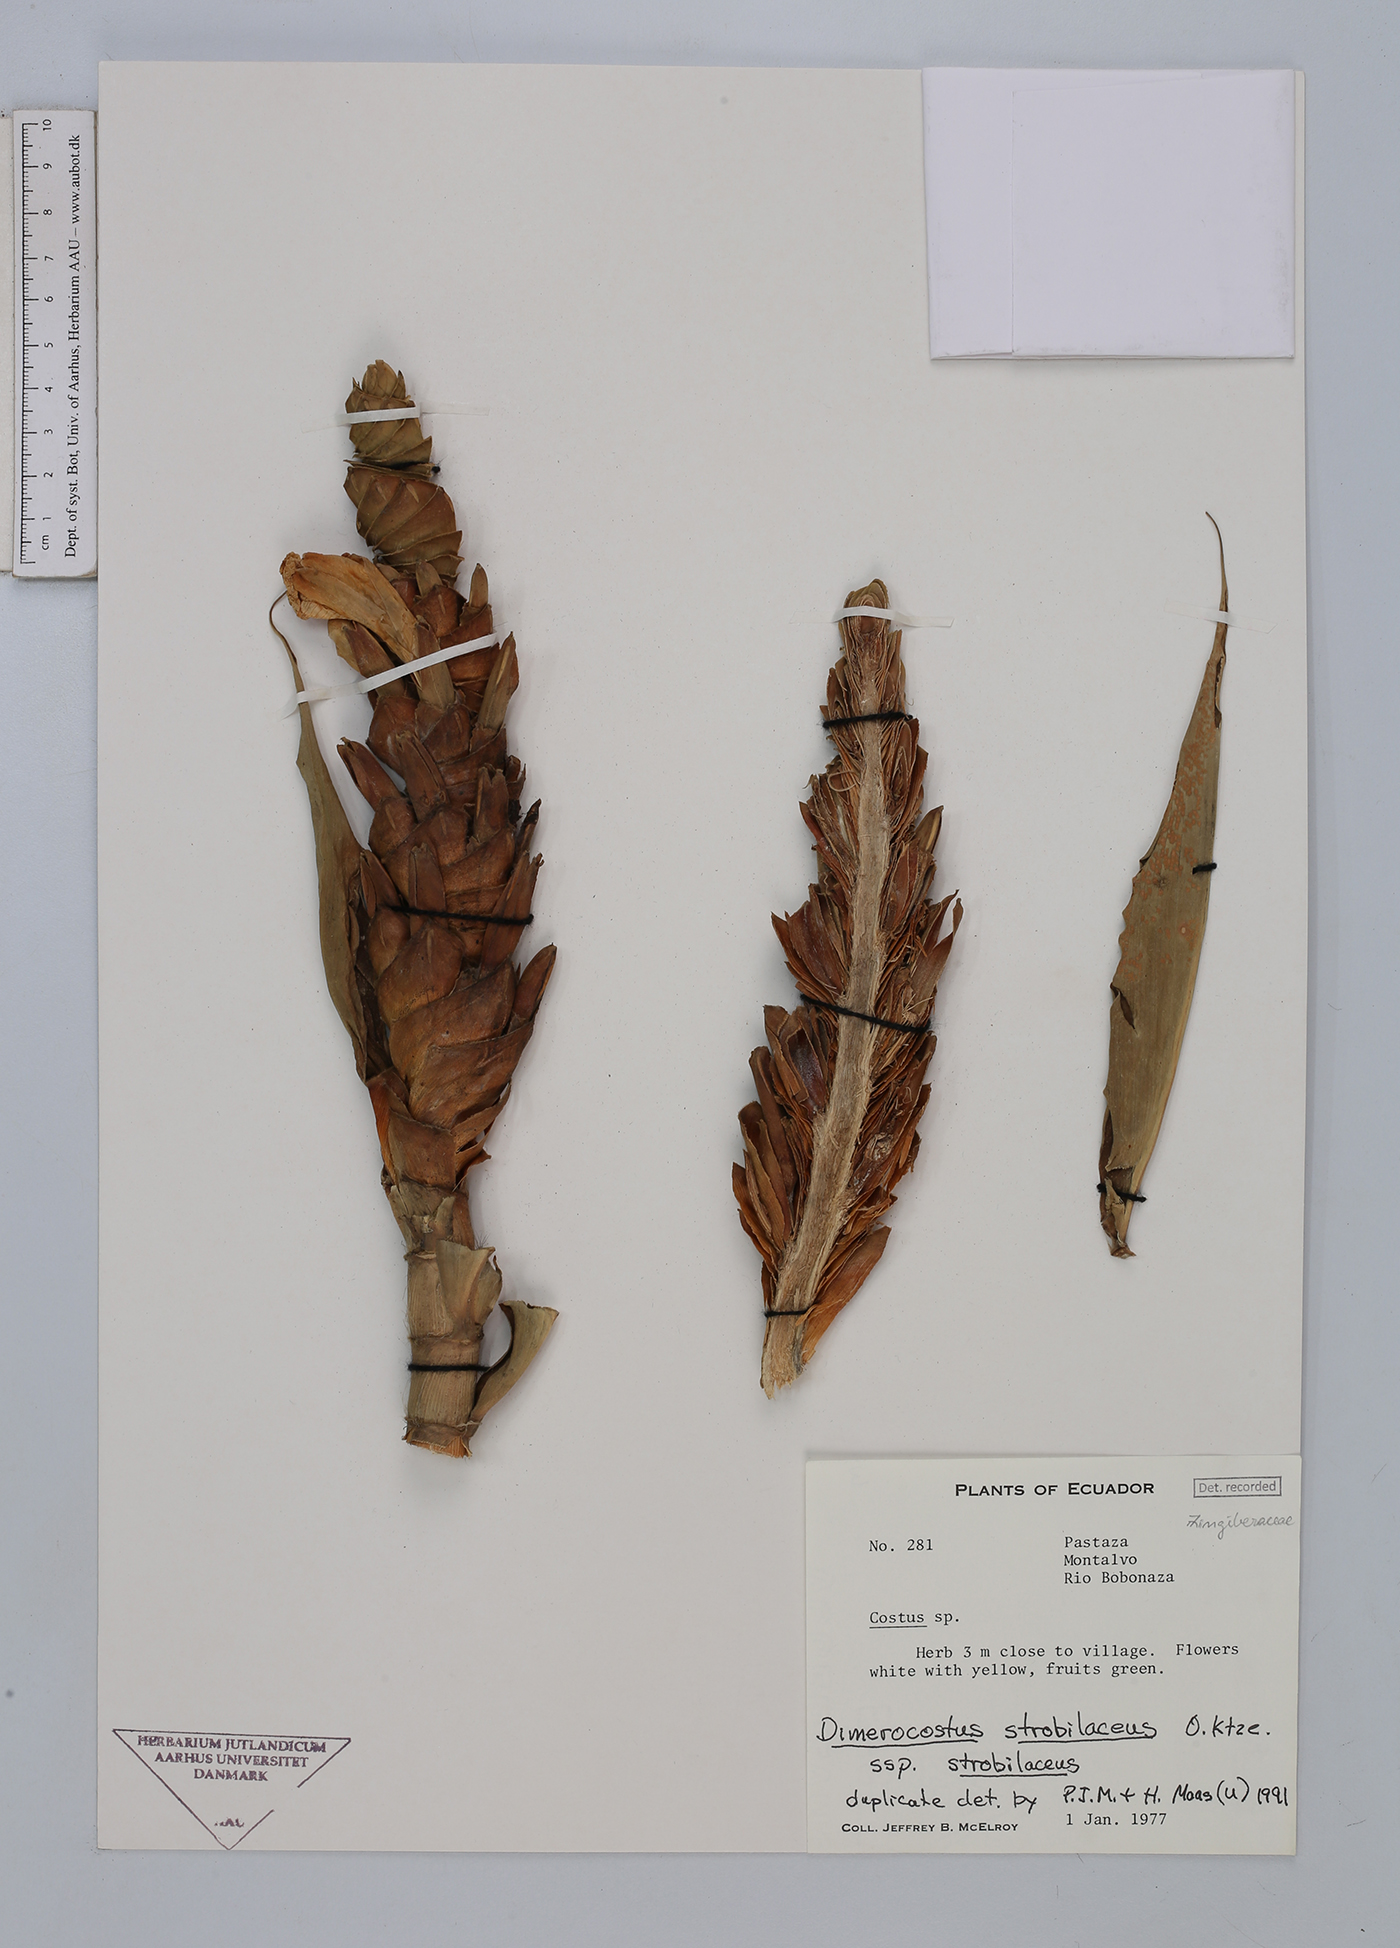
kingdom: Plantae
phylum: Tracheophyta
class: Liliopsida
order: Zingiberales
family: Costaceae
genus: Dimerocostus
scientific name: Dimerocostus strobilaceus
